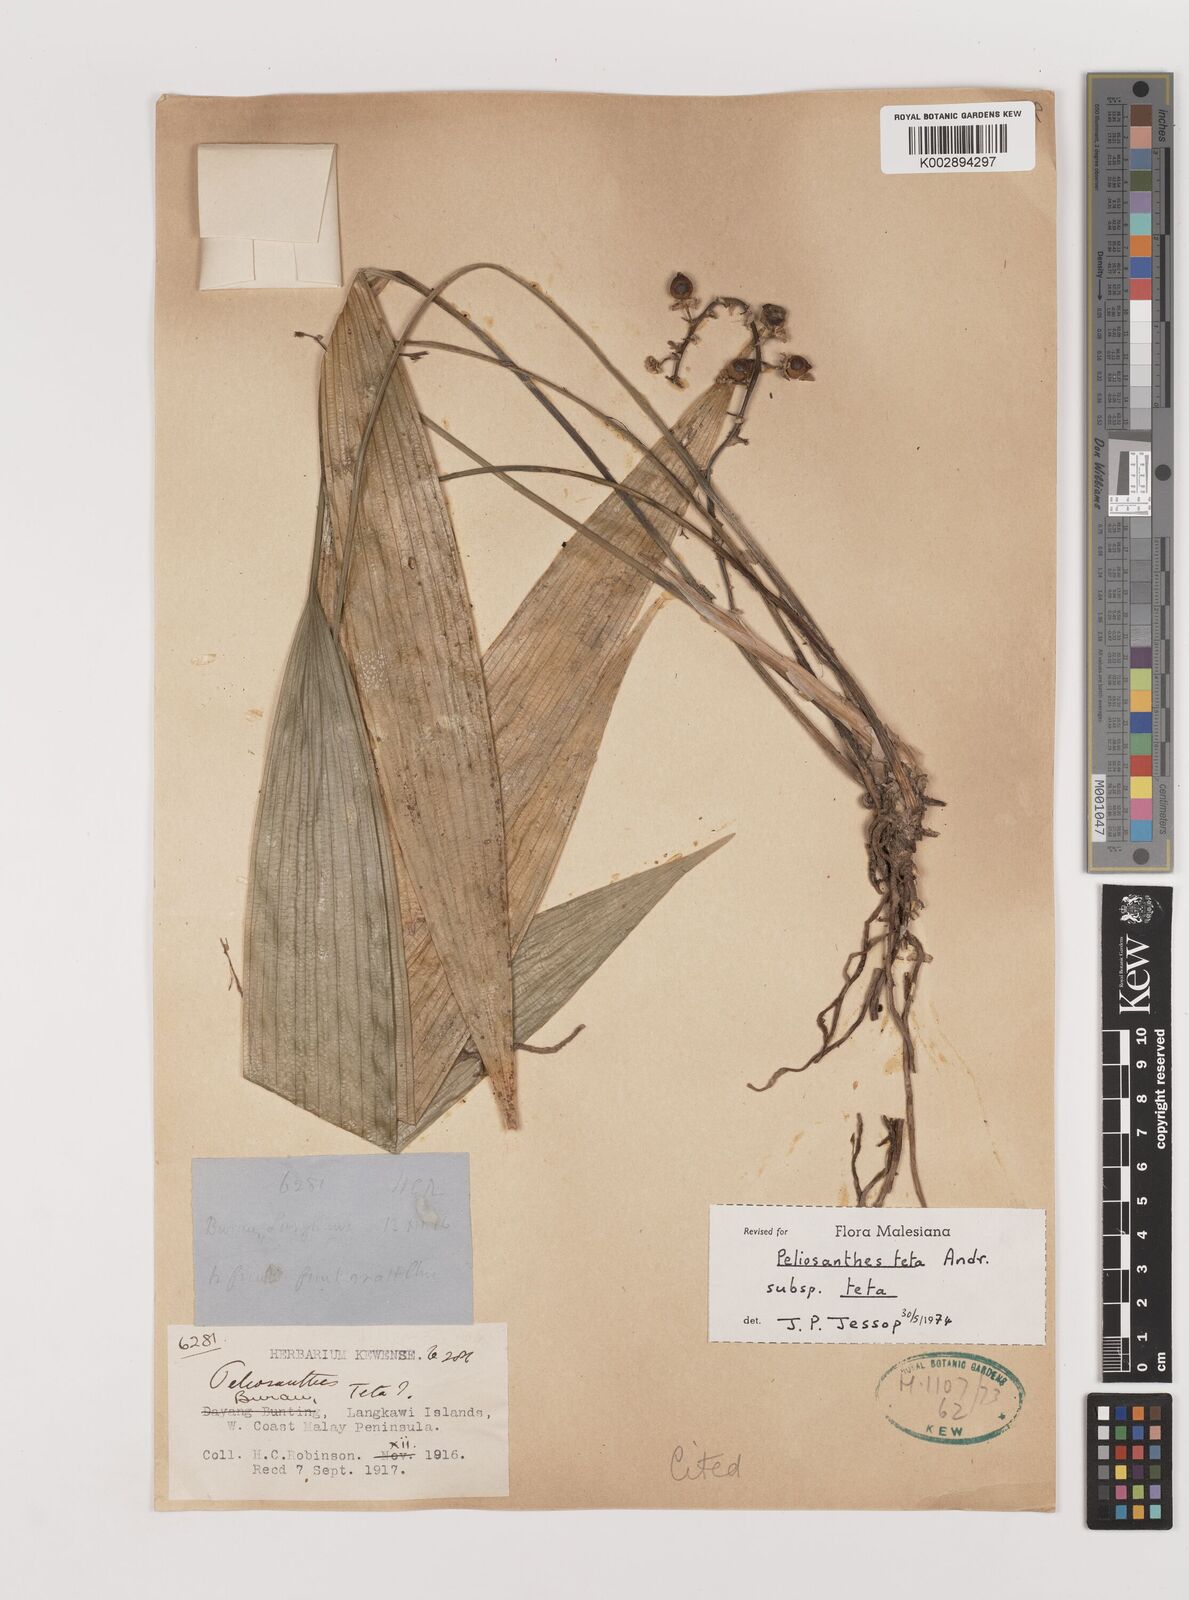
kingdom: Plantae
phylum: Tracheophyta
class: Liliopsida
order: Asparagales
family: Asparagaceae
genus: Peliosanthes
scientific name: Peliosanthes teta
